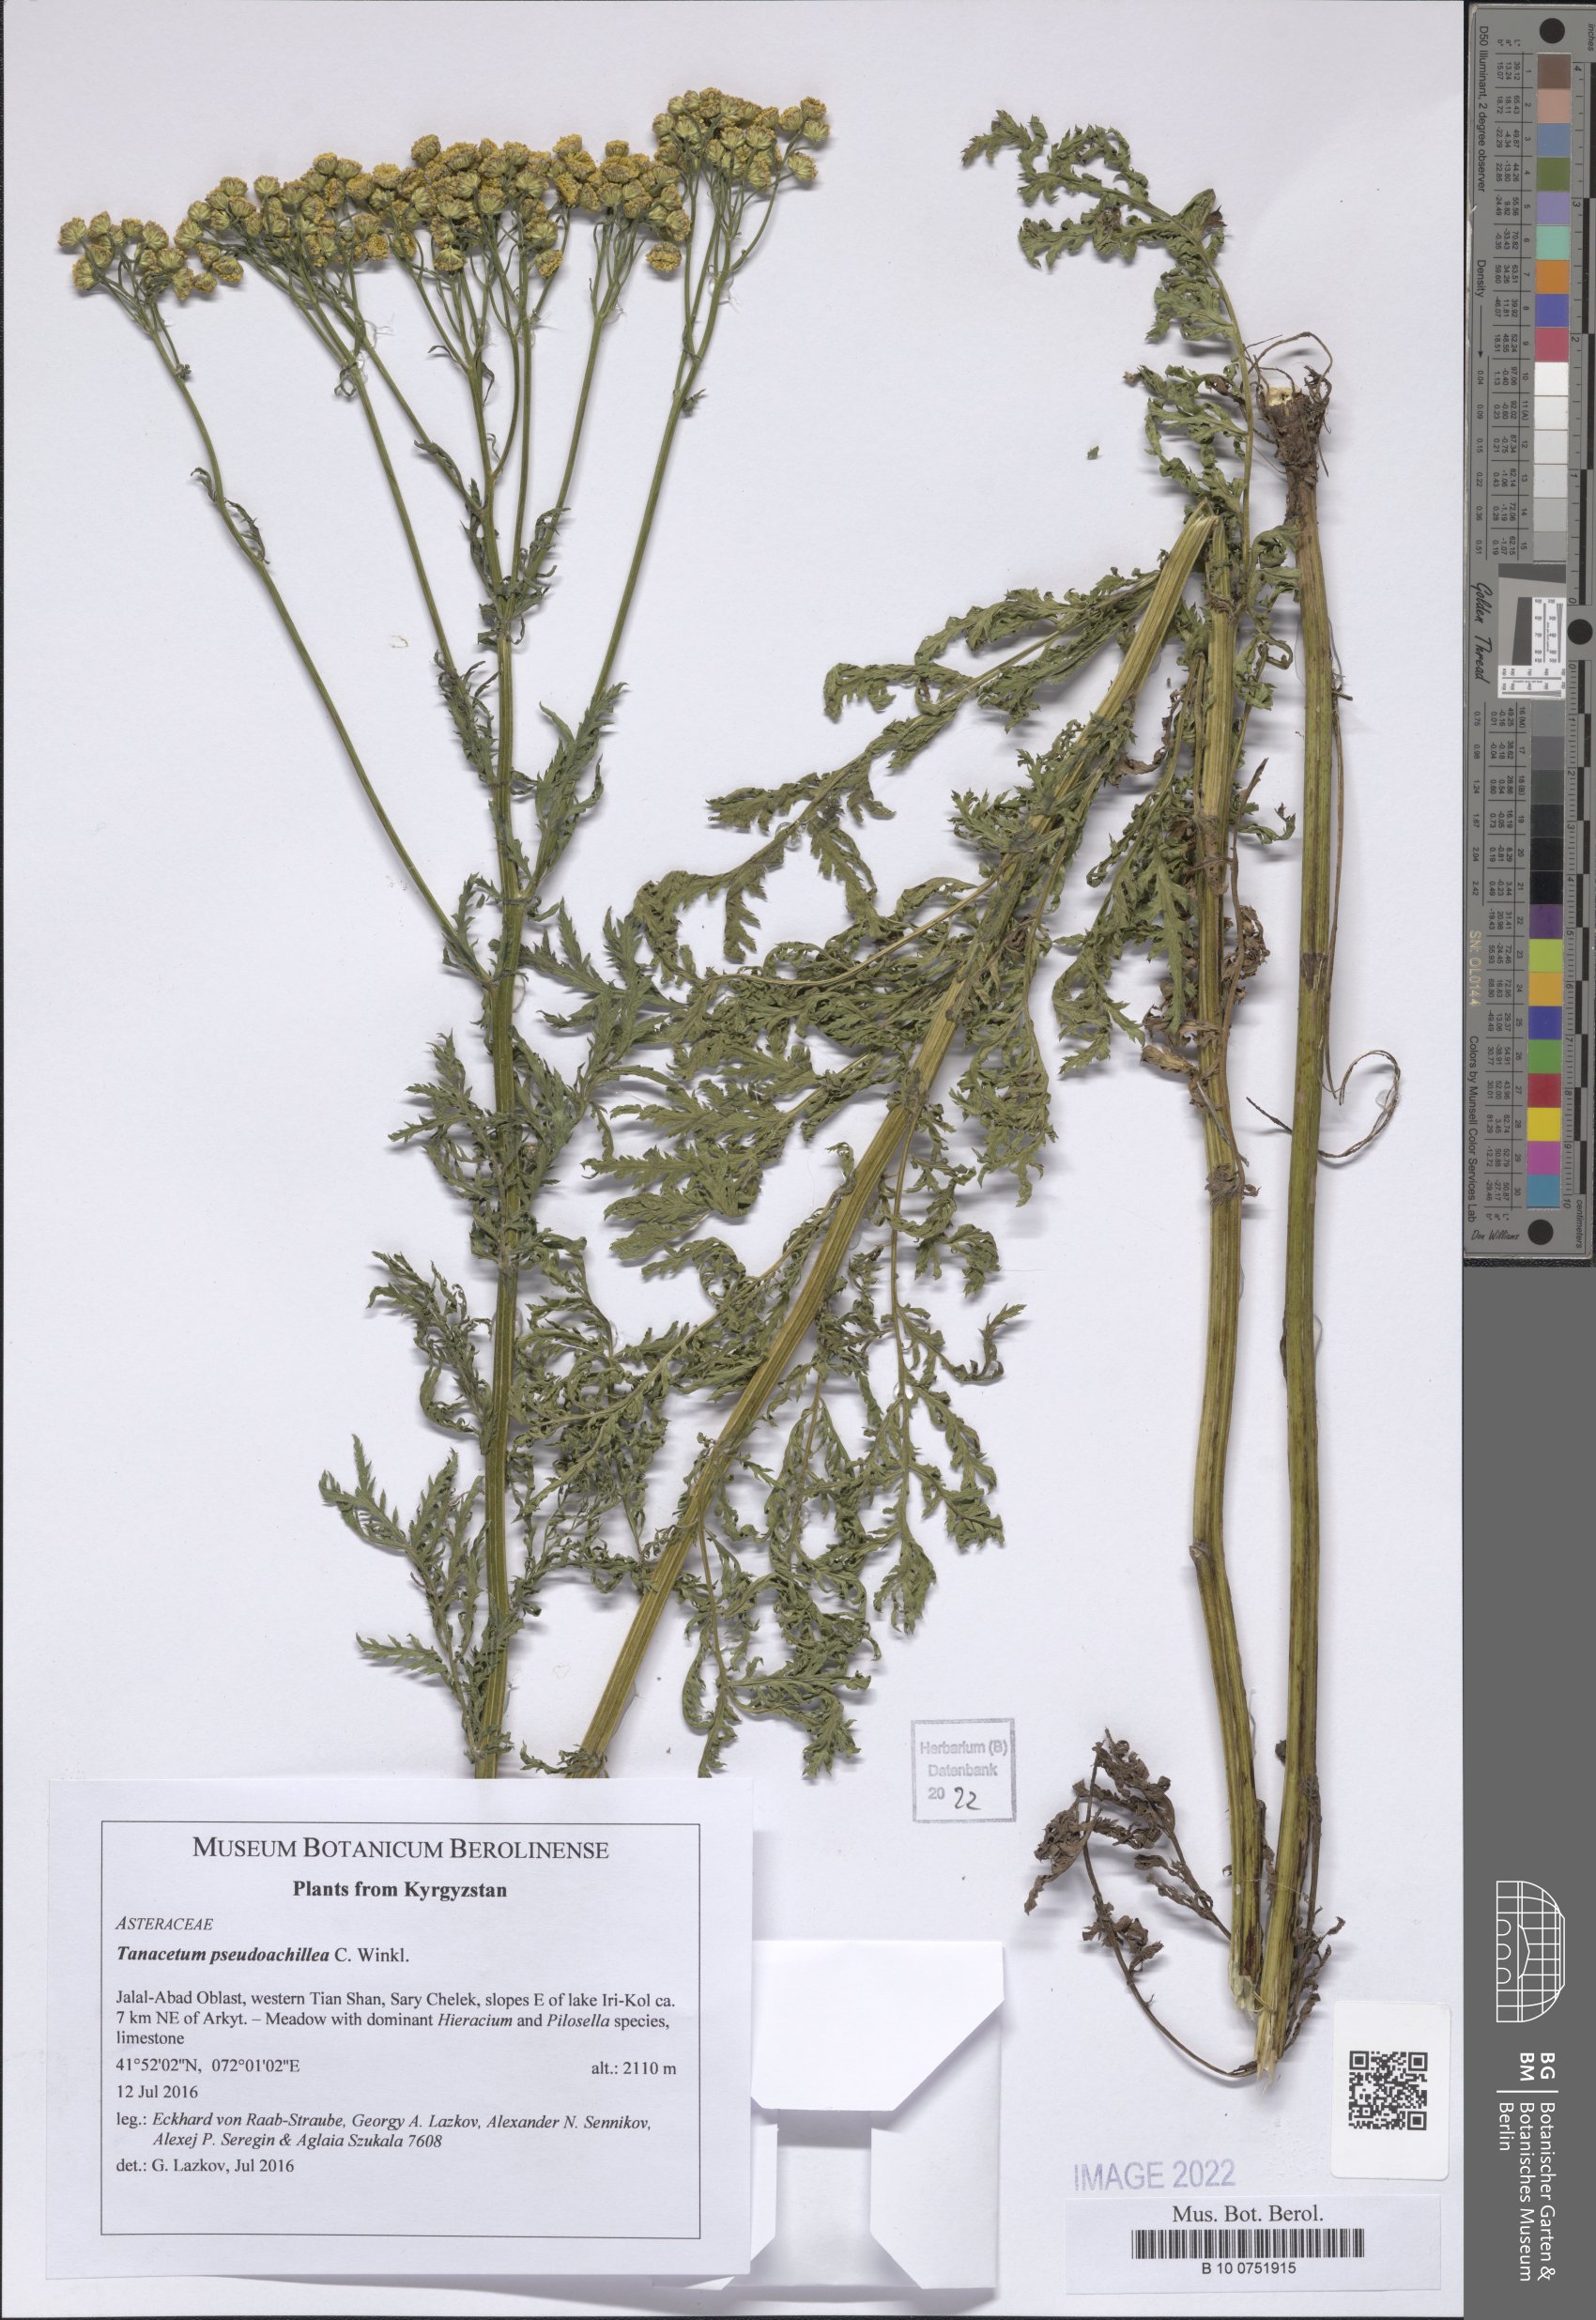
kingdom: Plantae
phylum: Tracheophyta
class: Magnoliopsida
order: Asterales
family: Asteraceae
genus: Lepidolopsis
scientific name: Lepidolopsis pseudoachillea
